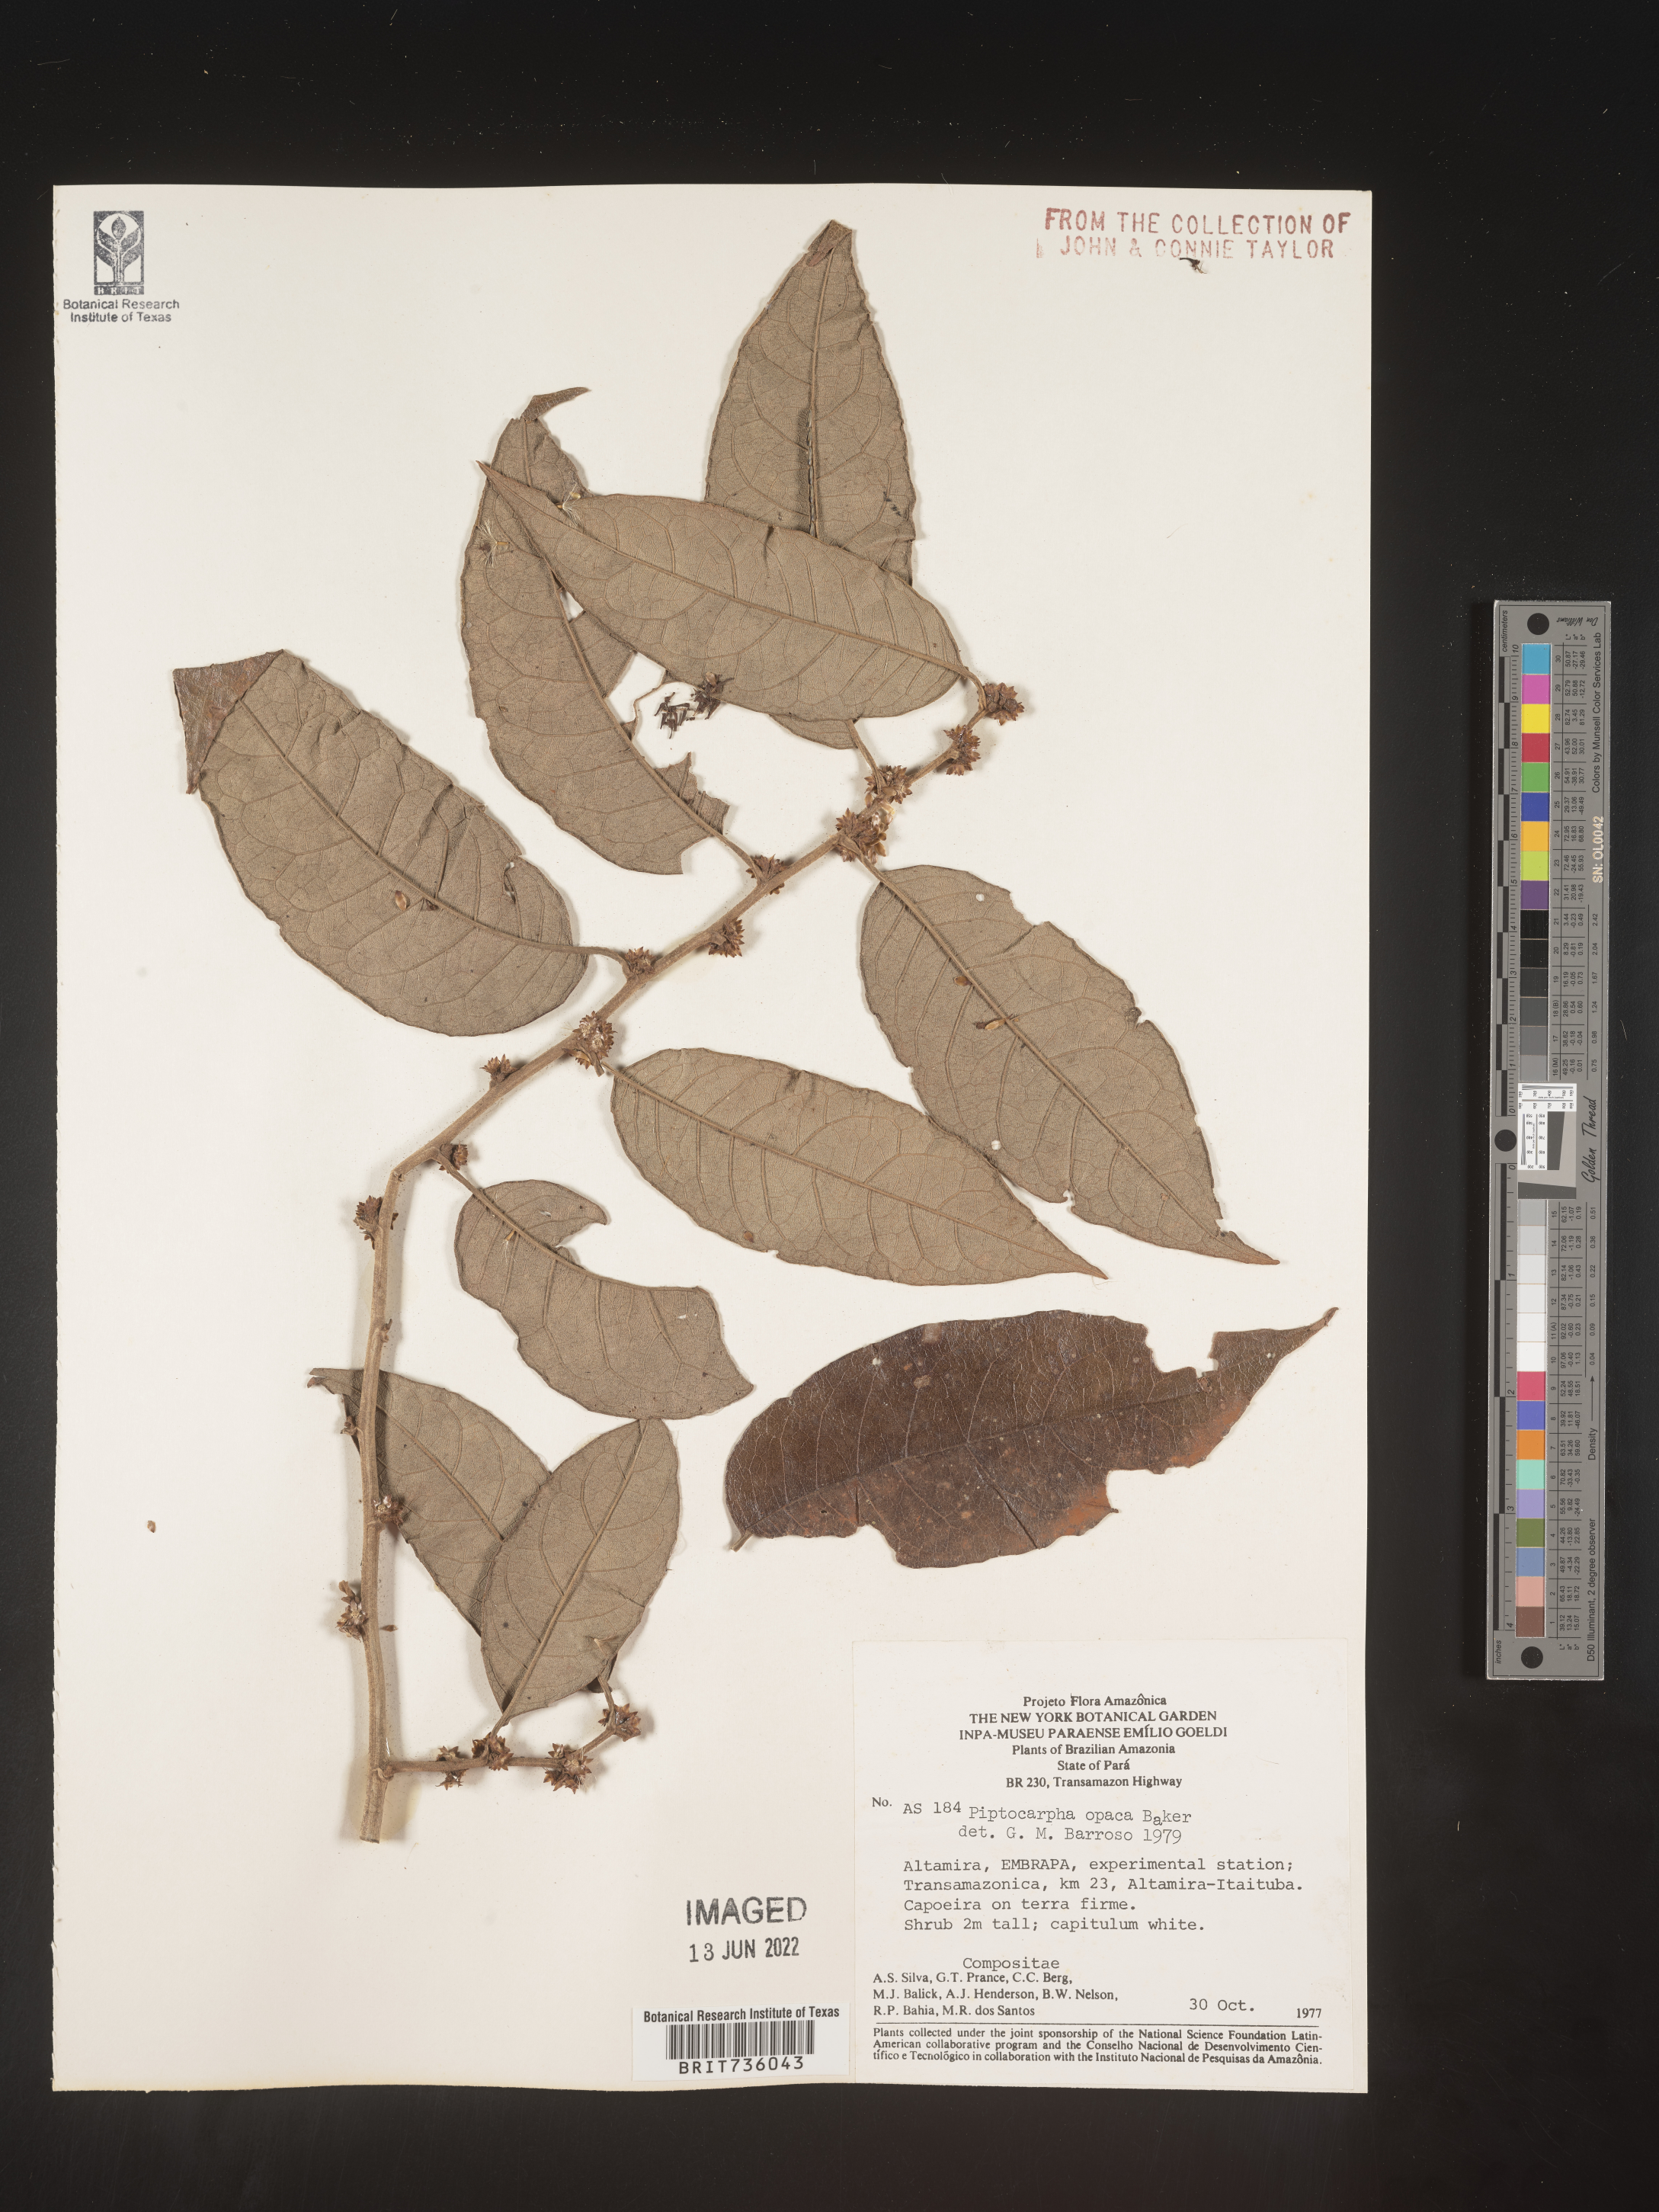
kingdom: Plantae
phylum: Tracheophyta
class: Magnoliopsida
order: Asterales
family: Asteraceae
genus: Piptocarpha
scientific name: Piptocarpha
